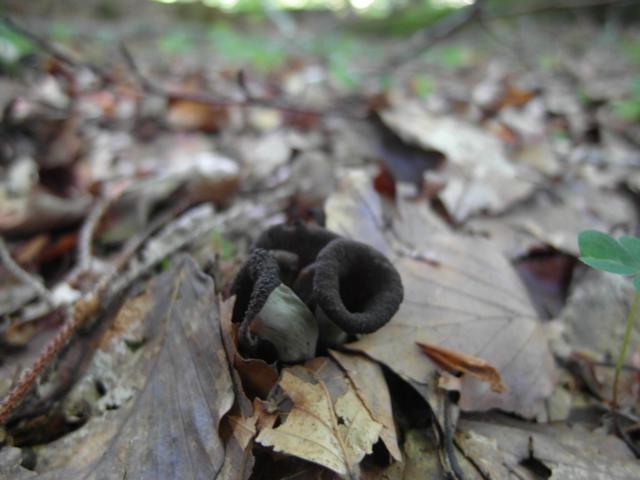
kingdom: Fungi
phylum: Basidiomycota
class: Agaricomycetes
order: Cantharellales
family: Hydnaceae
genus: Craterellus
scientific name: Craterellus cornucopioides
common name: trompetsvamp
